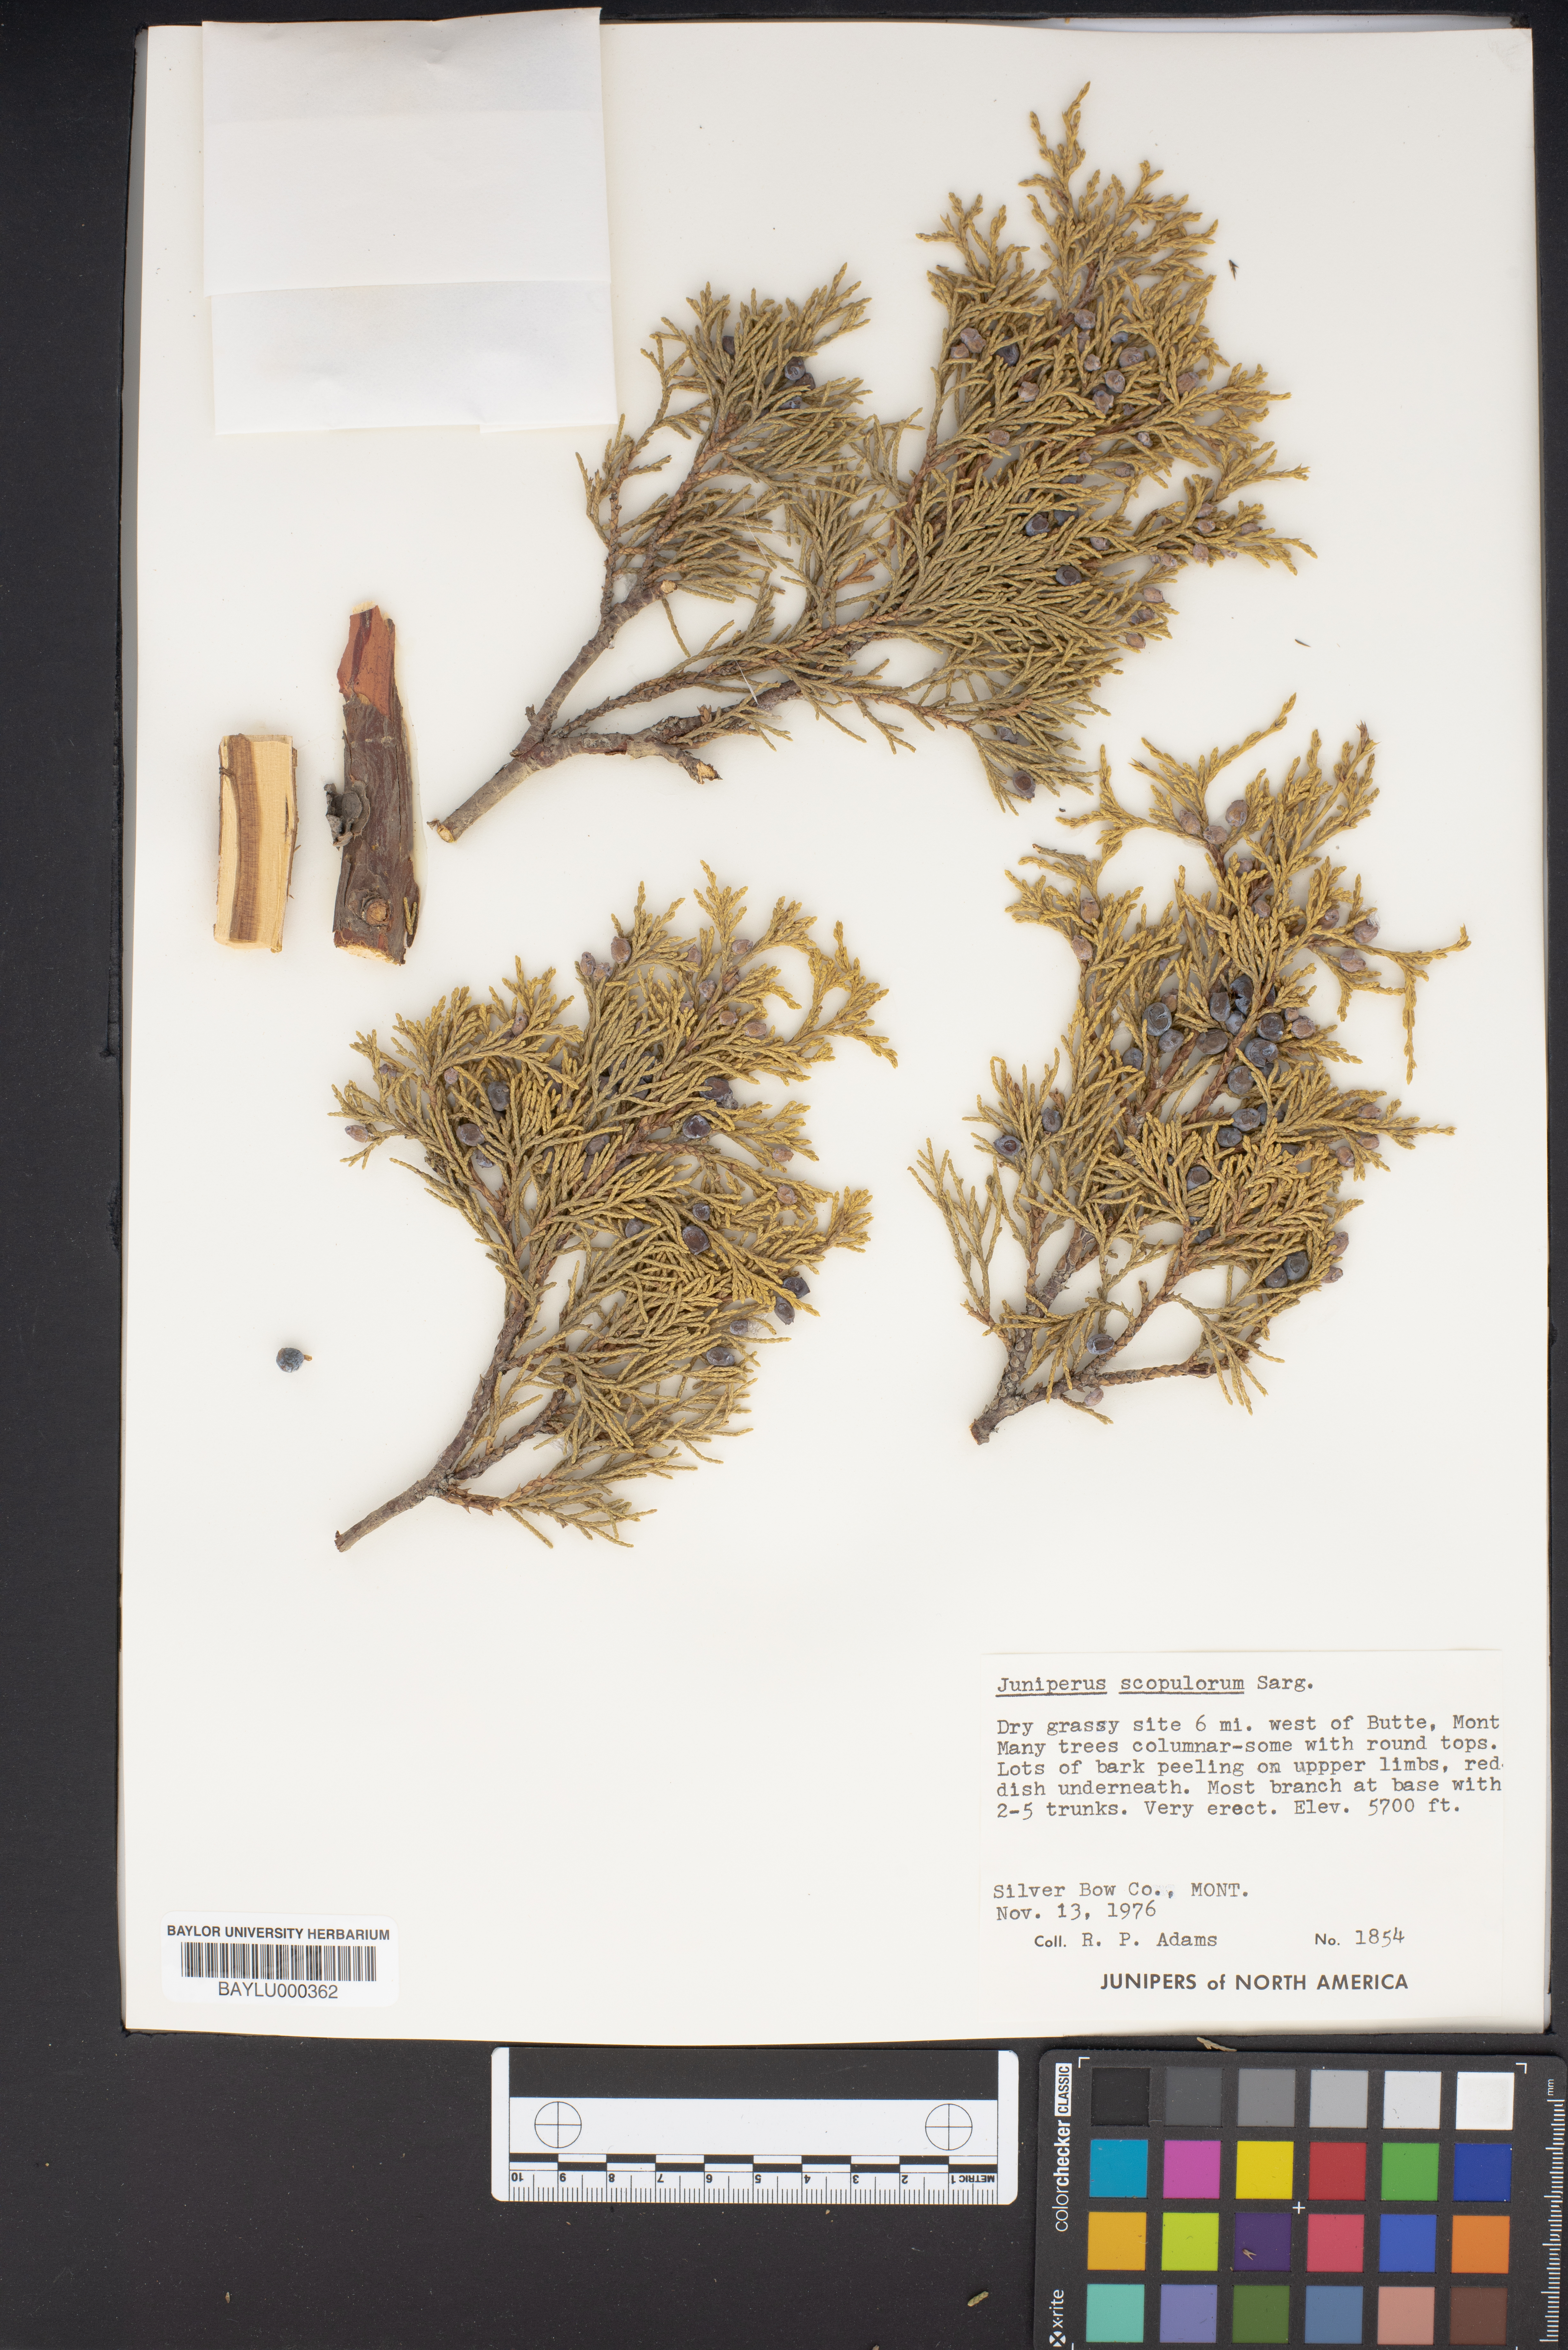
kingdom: Plantae
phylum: Tracheophyta
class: Pinopsida
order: Pinales
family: Cupressaceae
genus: Juniperus
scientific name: Juniperus scopulorum
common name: Rocky mountain juniper
